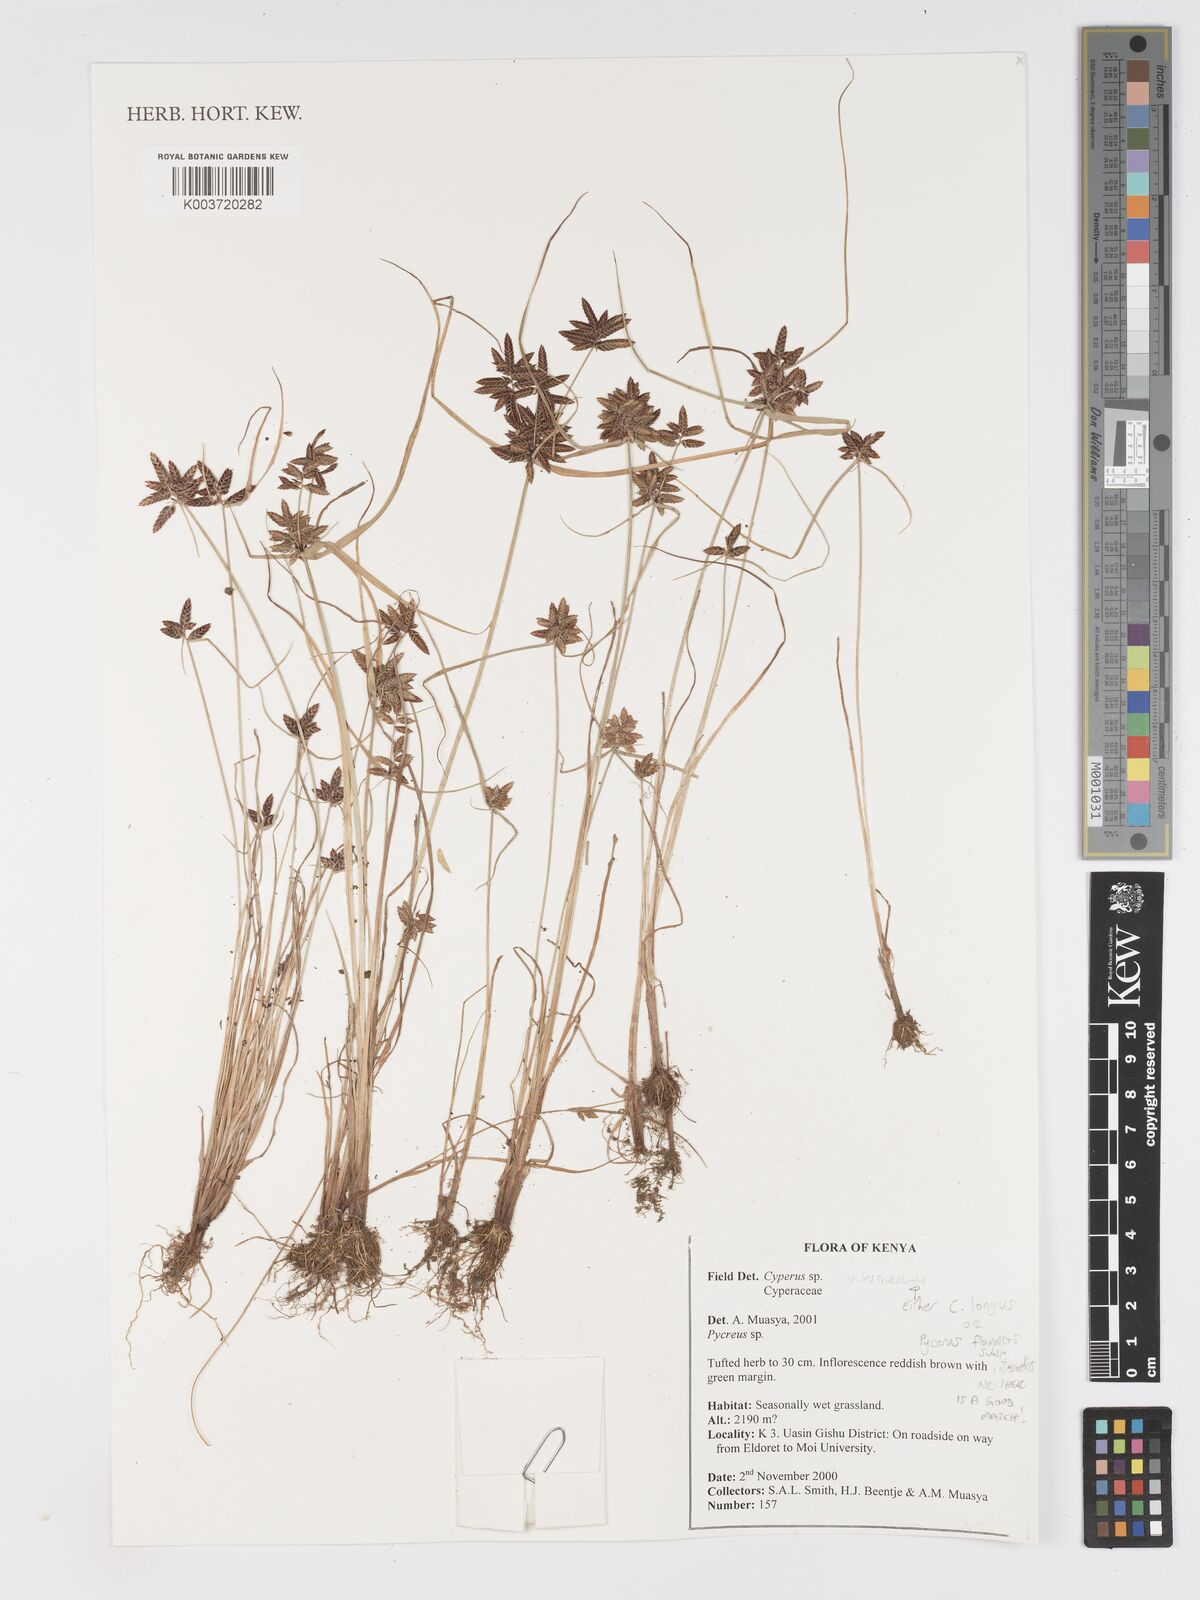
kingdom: Plantae
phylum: Tracheophyta
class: Liliopsida
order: Poales
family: Cyperaceae
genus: Cyperus
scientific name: Cyperus
